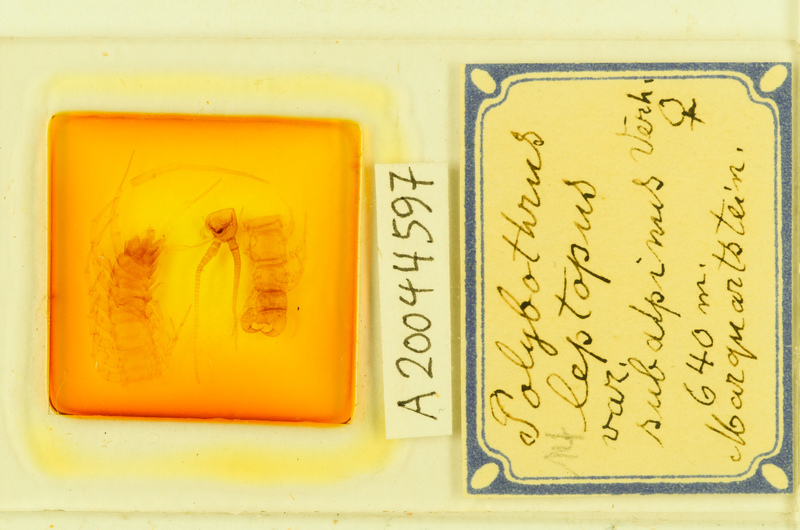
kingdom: Animalia
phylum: Arthropoda
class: Chilopoda
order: Lithobiomorpha
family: Lithobiidae
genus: Polybothrus
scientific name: Polybothrus leptopus
